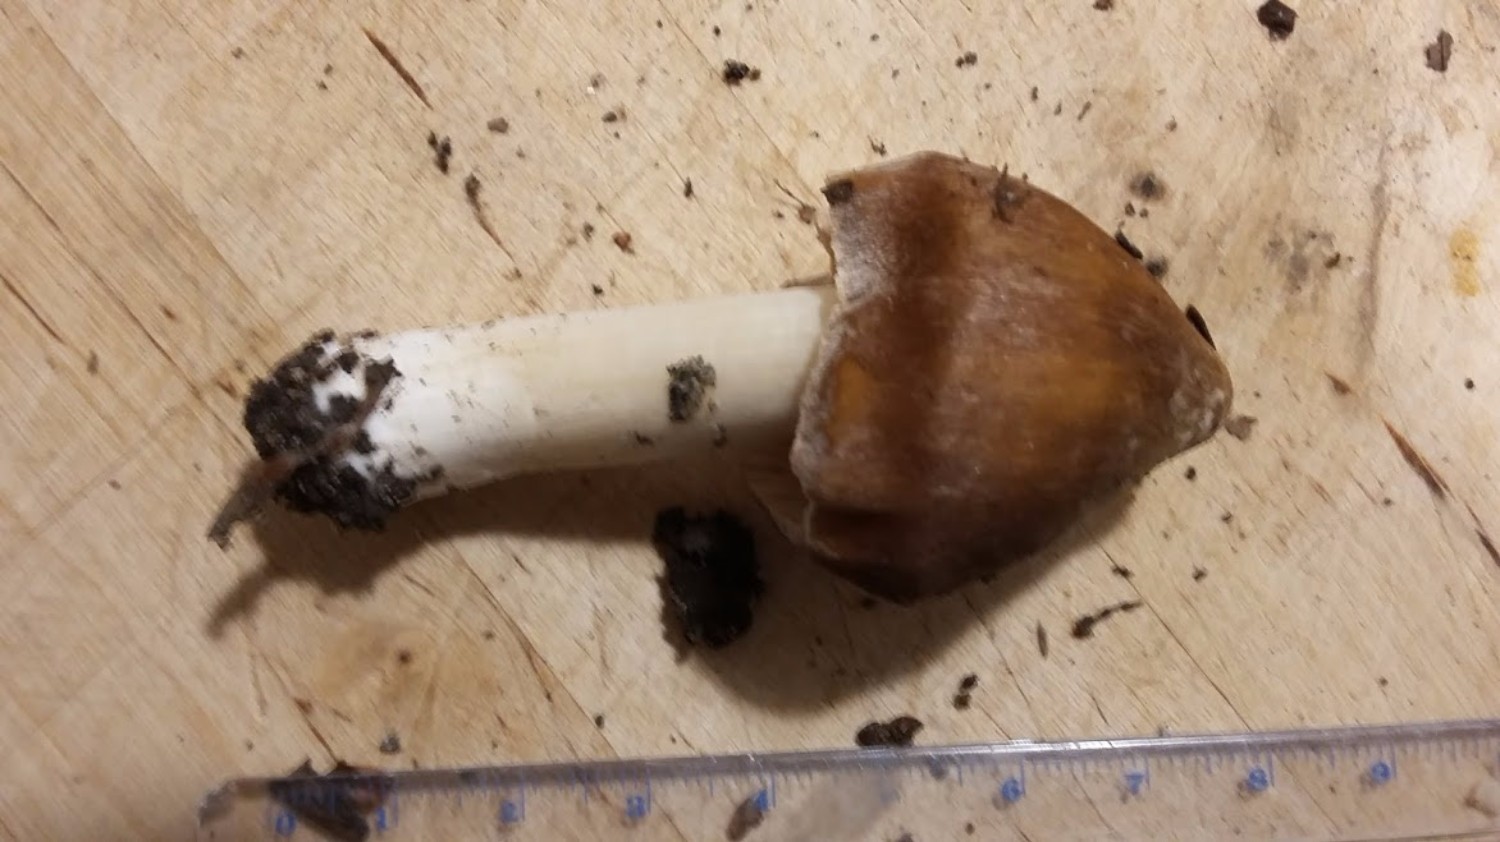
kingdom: Fungi
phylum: Basidiomycota
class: Agaricomycetes
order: Agaricales
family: Inocybaceae
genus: Inocybe
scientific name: Inocybe
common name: trævlhat
